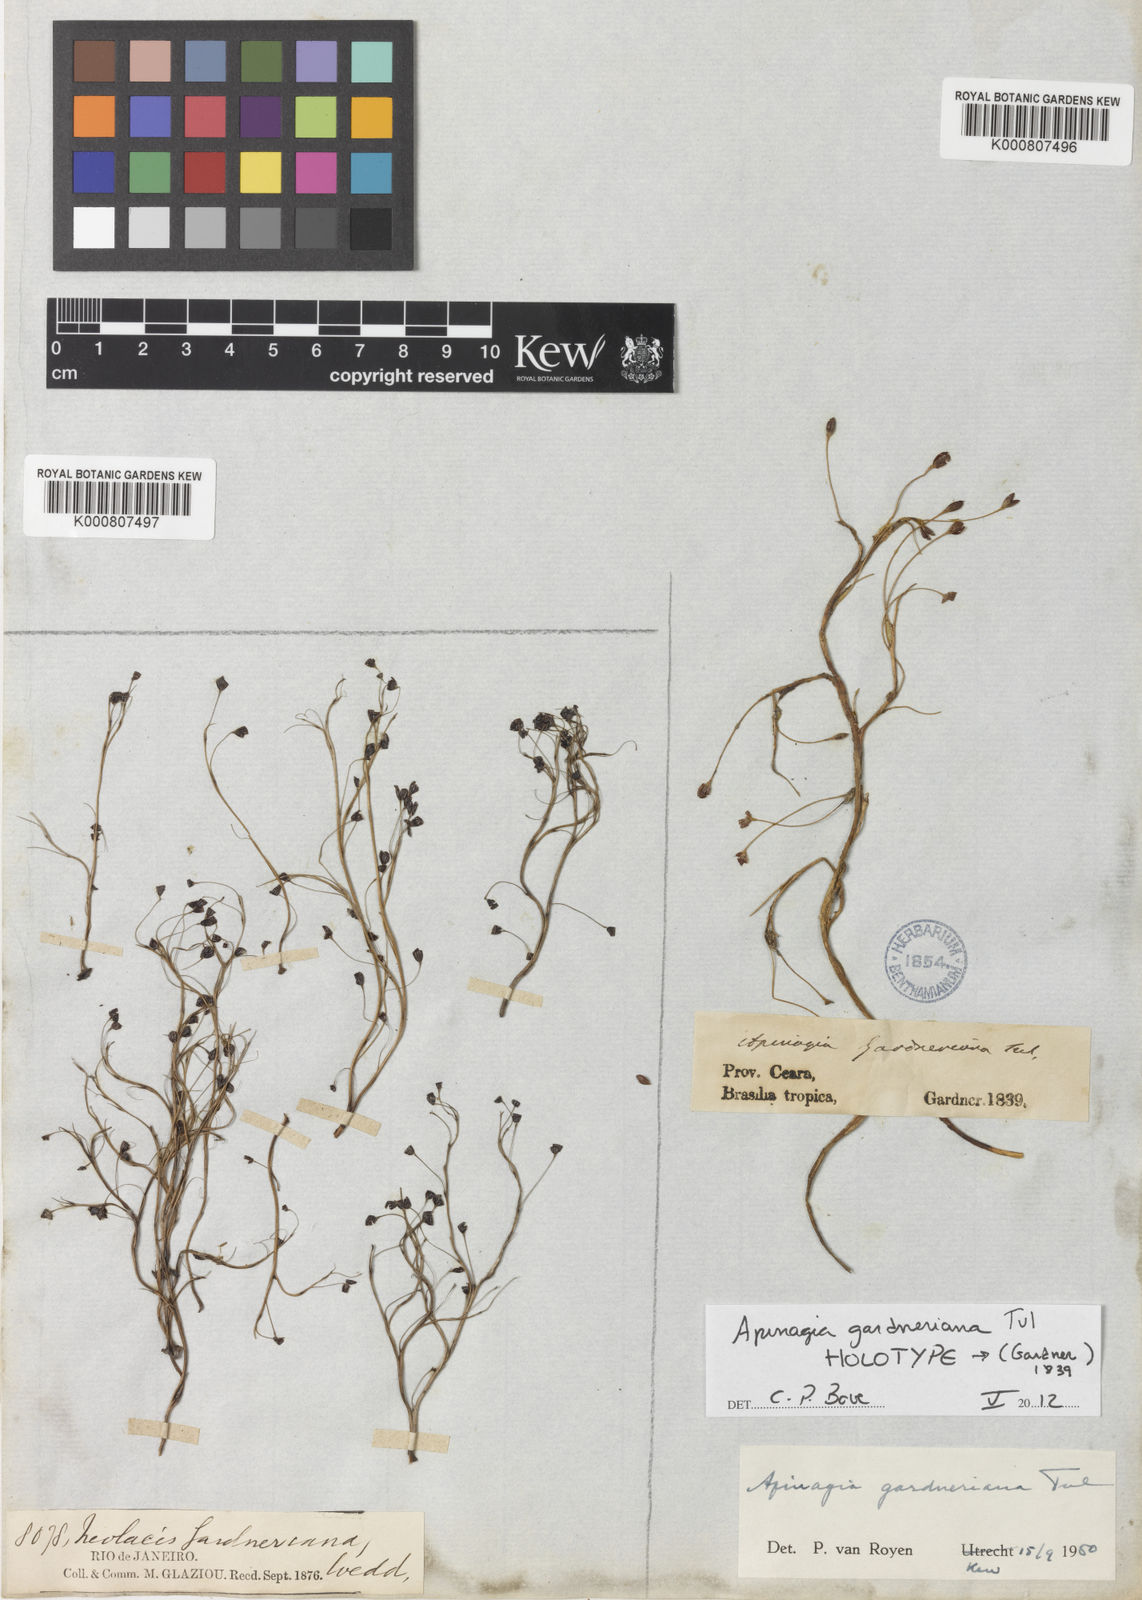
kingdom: Plantae
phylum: Tracheophyta
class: Magnoliopsida
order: Malpighiales
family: Podostemaceae
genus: Apinagia
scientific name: Apinagia gardneriana
